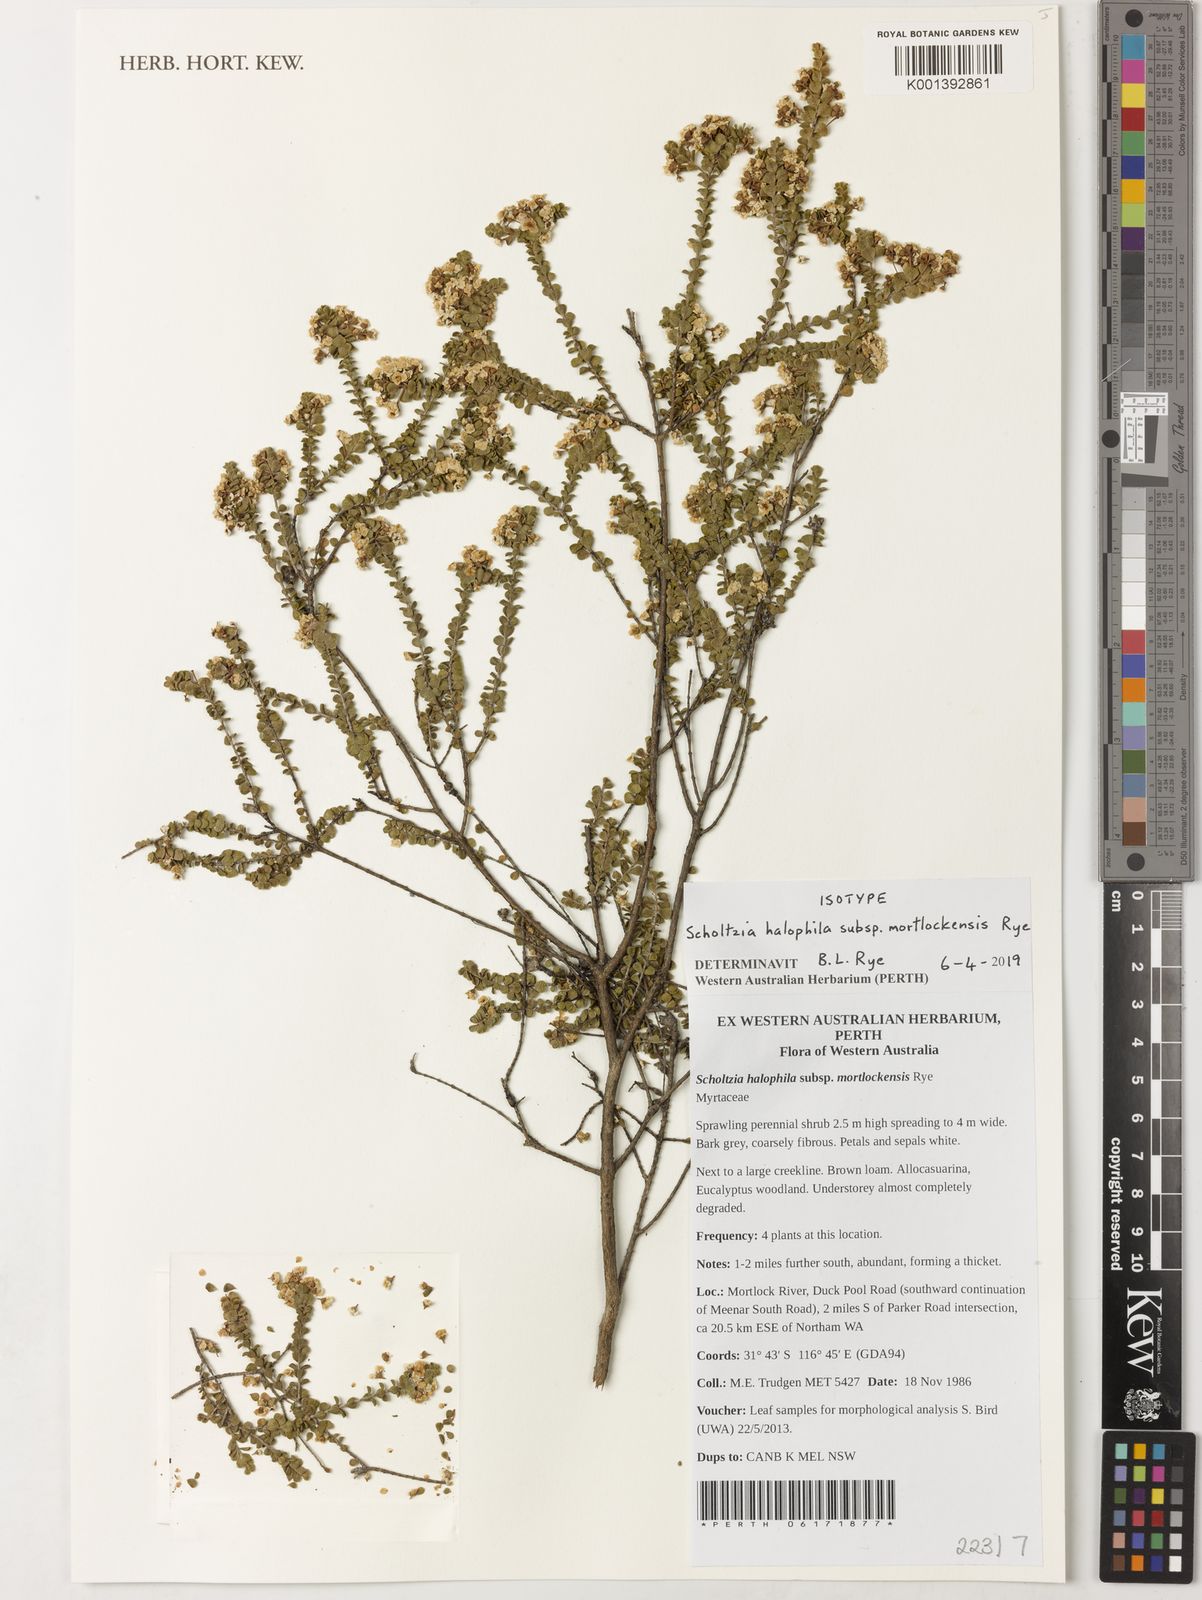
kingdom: Plantae
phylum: Tracheophyta
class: Magnoliopsida
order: Myrtales
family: Myrtaceae
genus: Scholtzia
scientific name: Scholtzia
